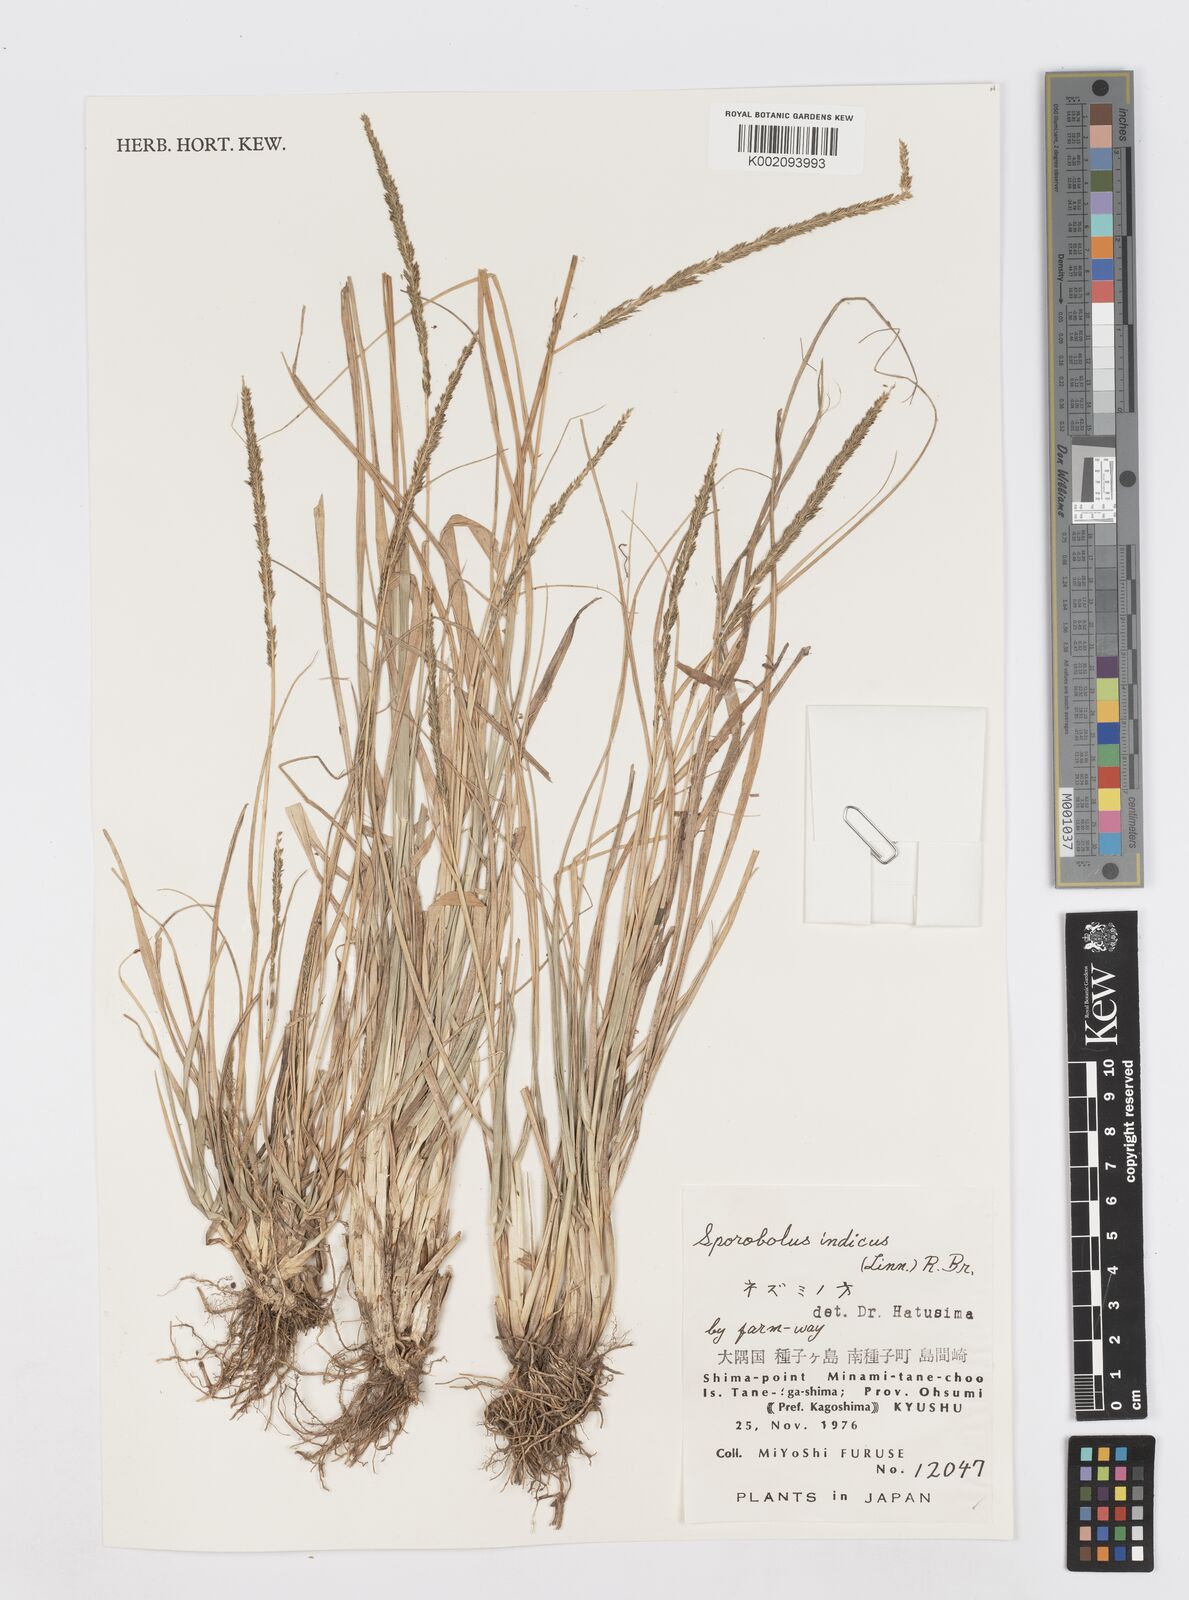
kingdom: Plantae
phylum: Tracheophyta
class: Liliopsida
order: Poales
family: Poaceae
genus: Sporobolus
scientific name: Sporobolus fertilis
